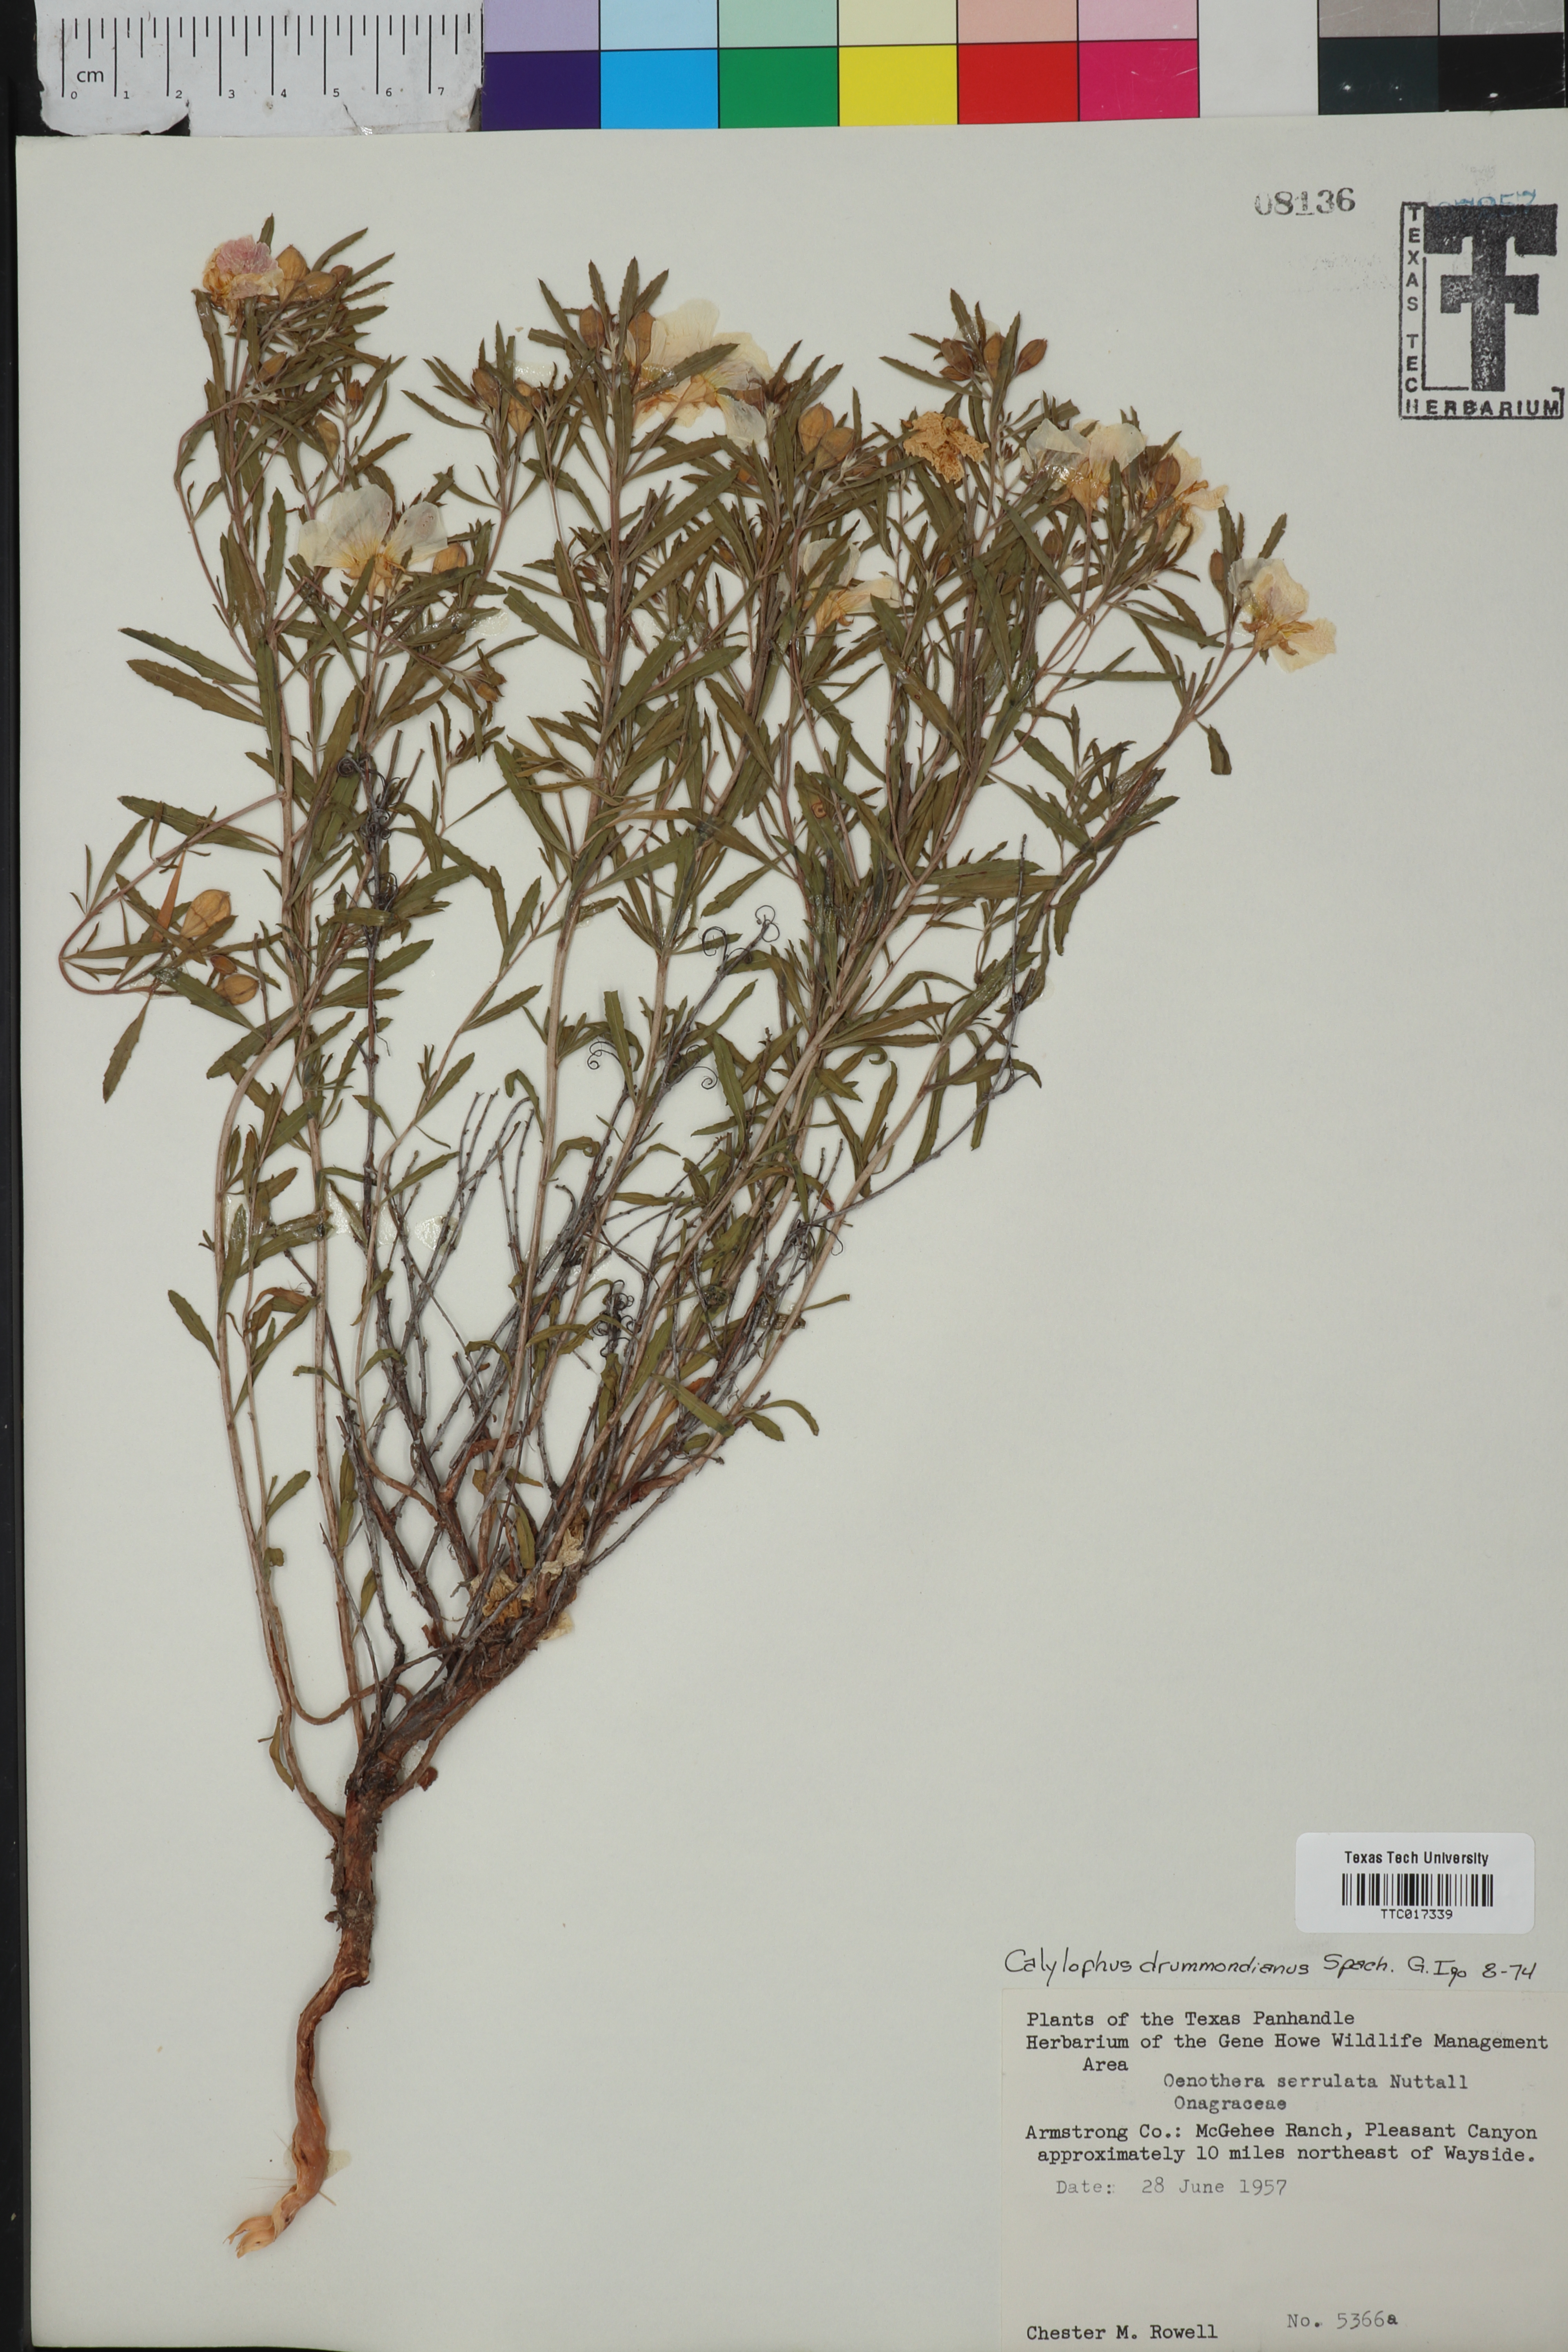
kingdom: Plantae
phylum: Tracheophyta
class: Magnoliopsida
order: Myrtales
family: Onagraceae
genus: Oenothera
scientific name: Oenothera serrulata
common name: Half-shrub calylophus
